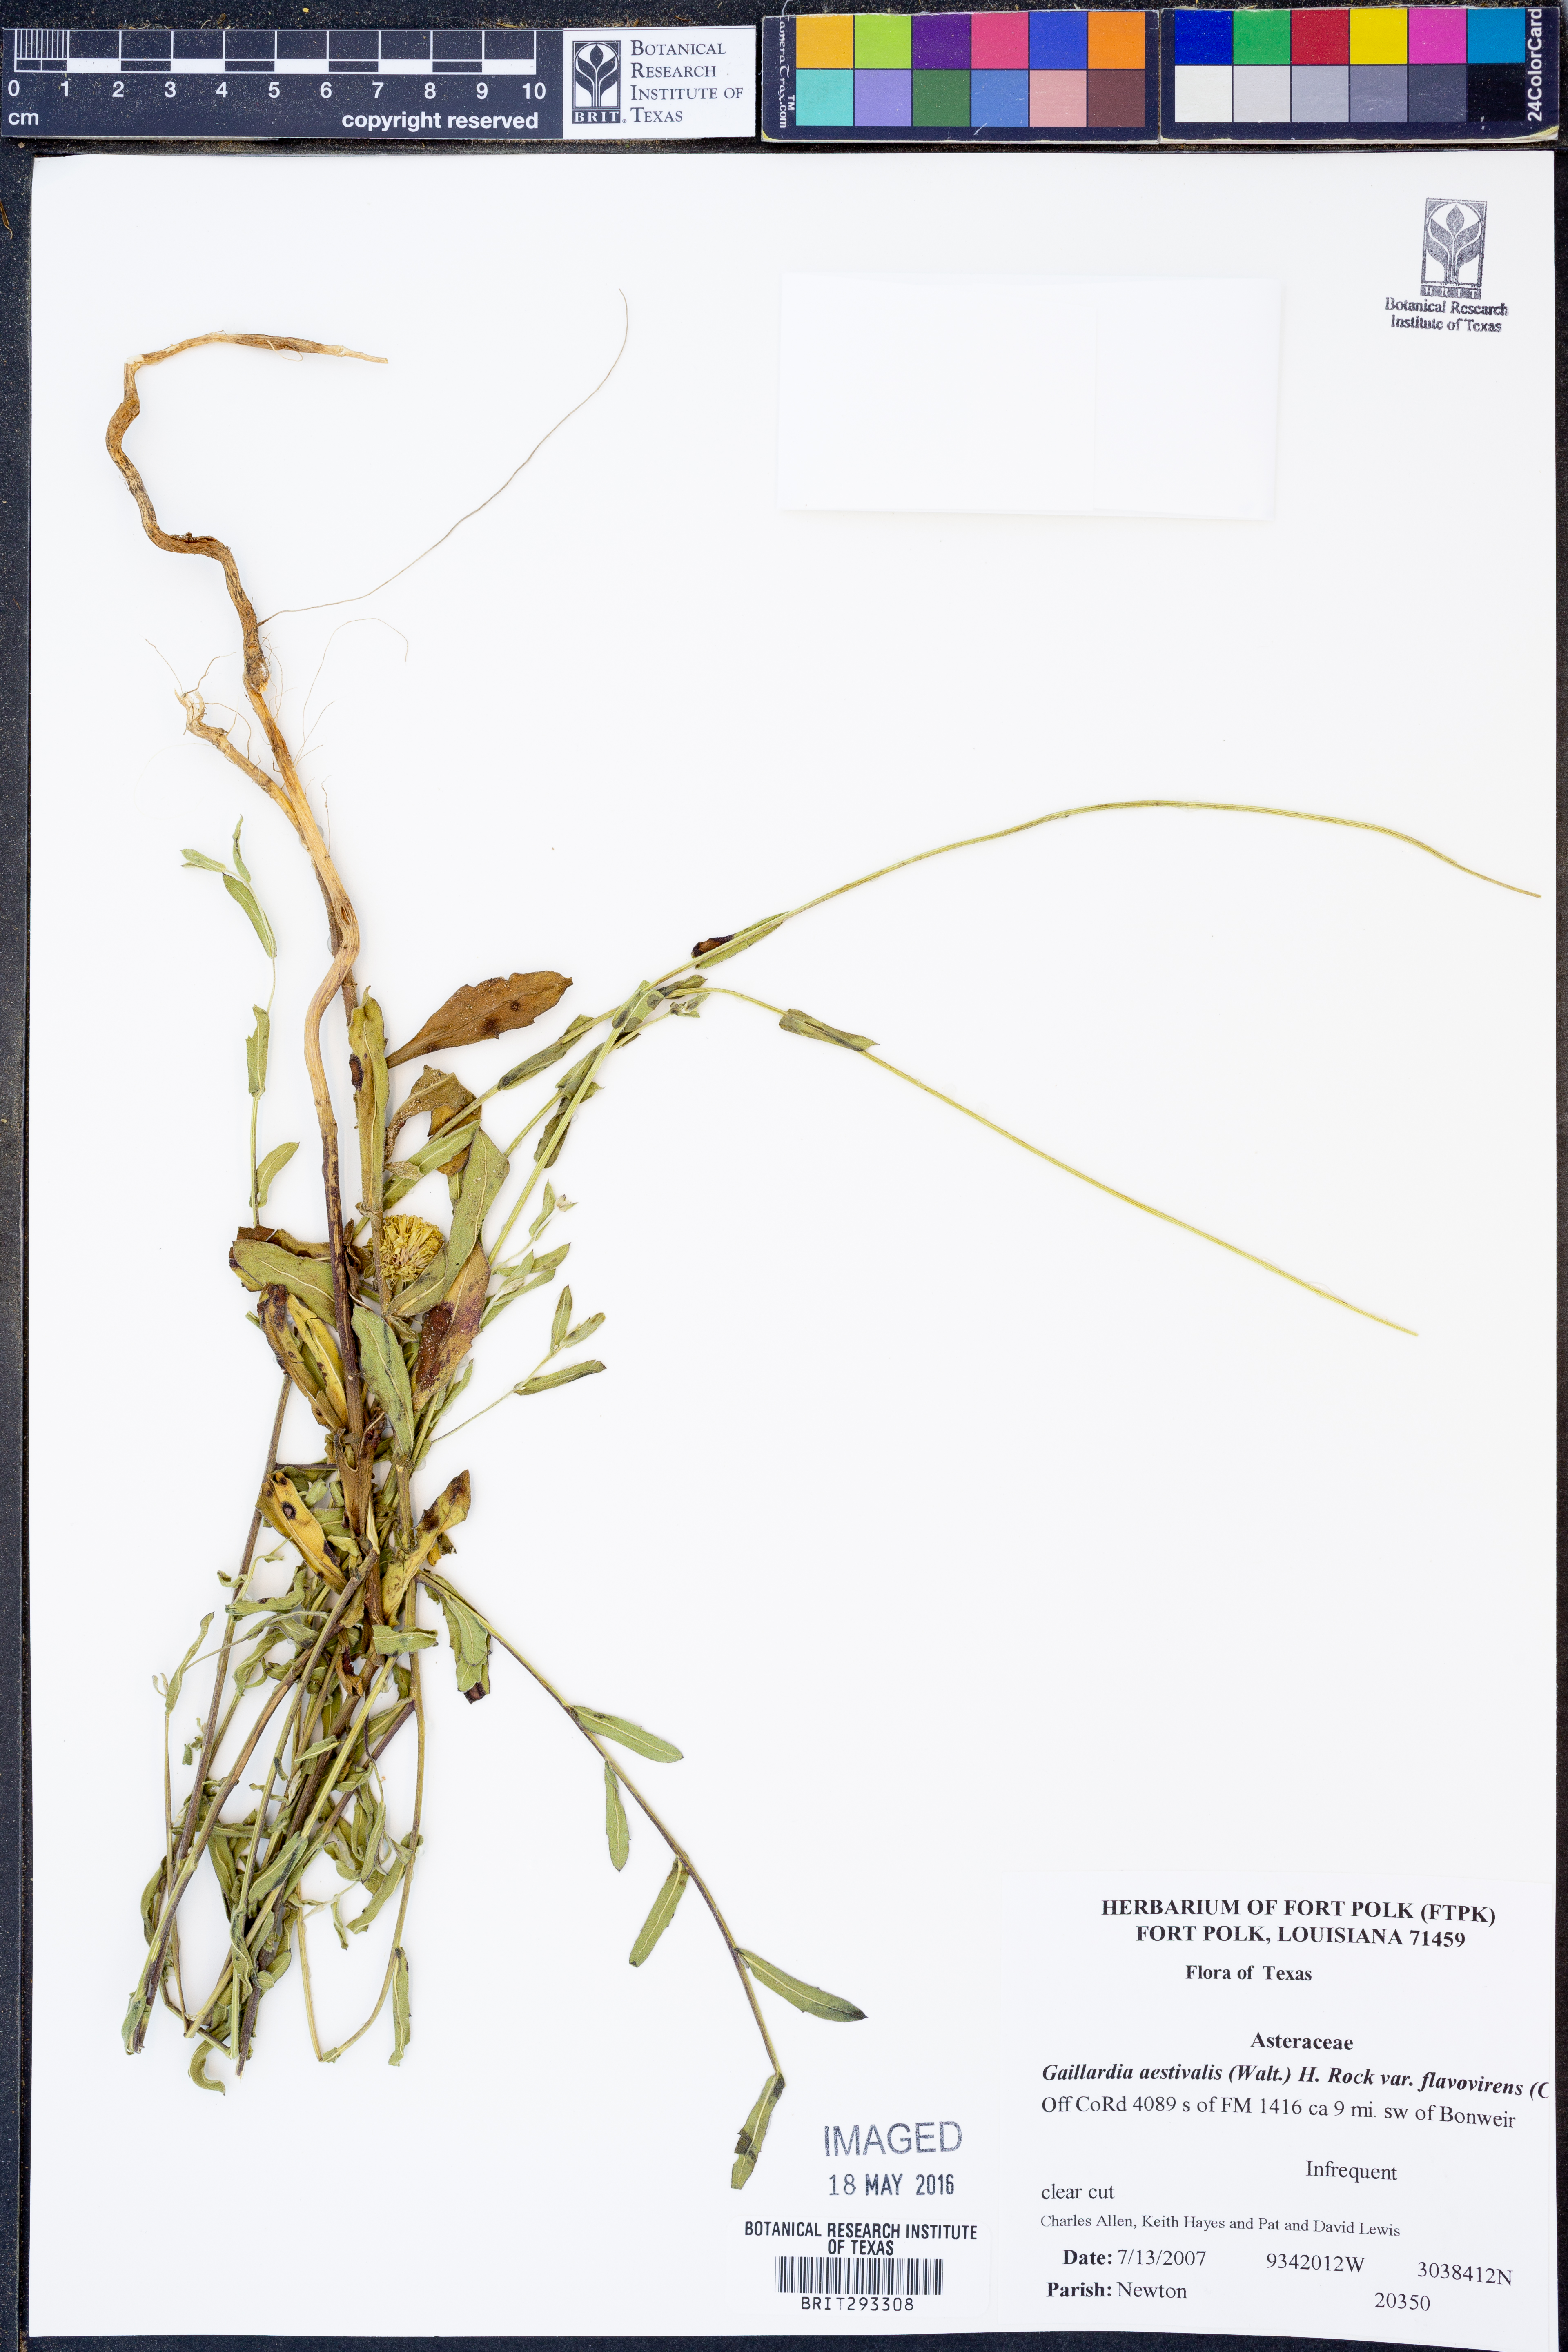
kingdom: Plantae
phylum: Tracheophyta
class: Magnoliopsida
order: Asterales
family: Asteraceae
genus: Gaillardia
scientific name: Gaillardia aestivalis
